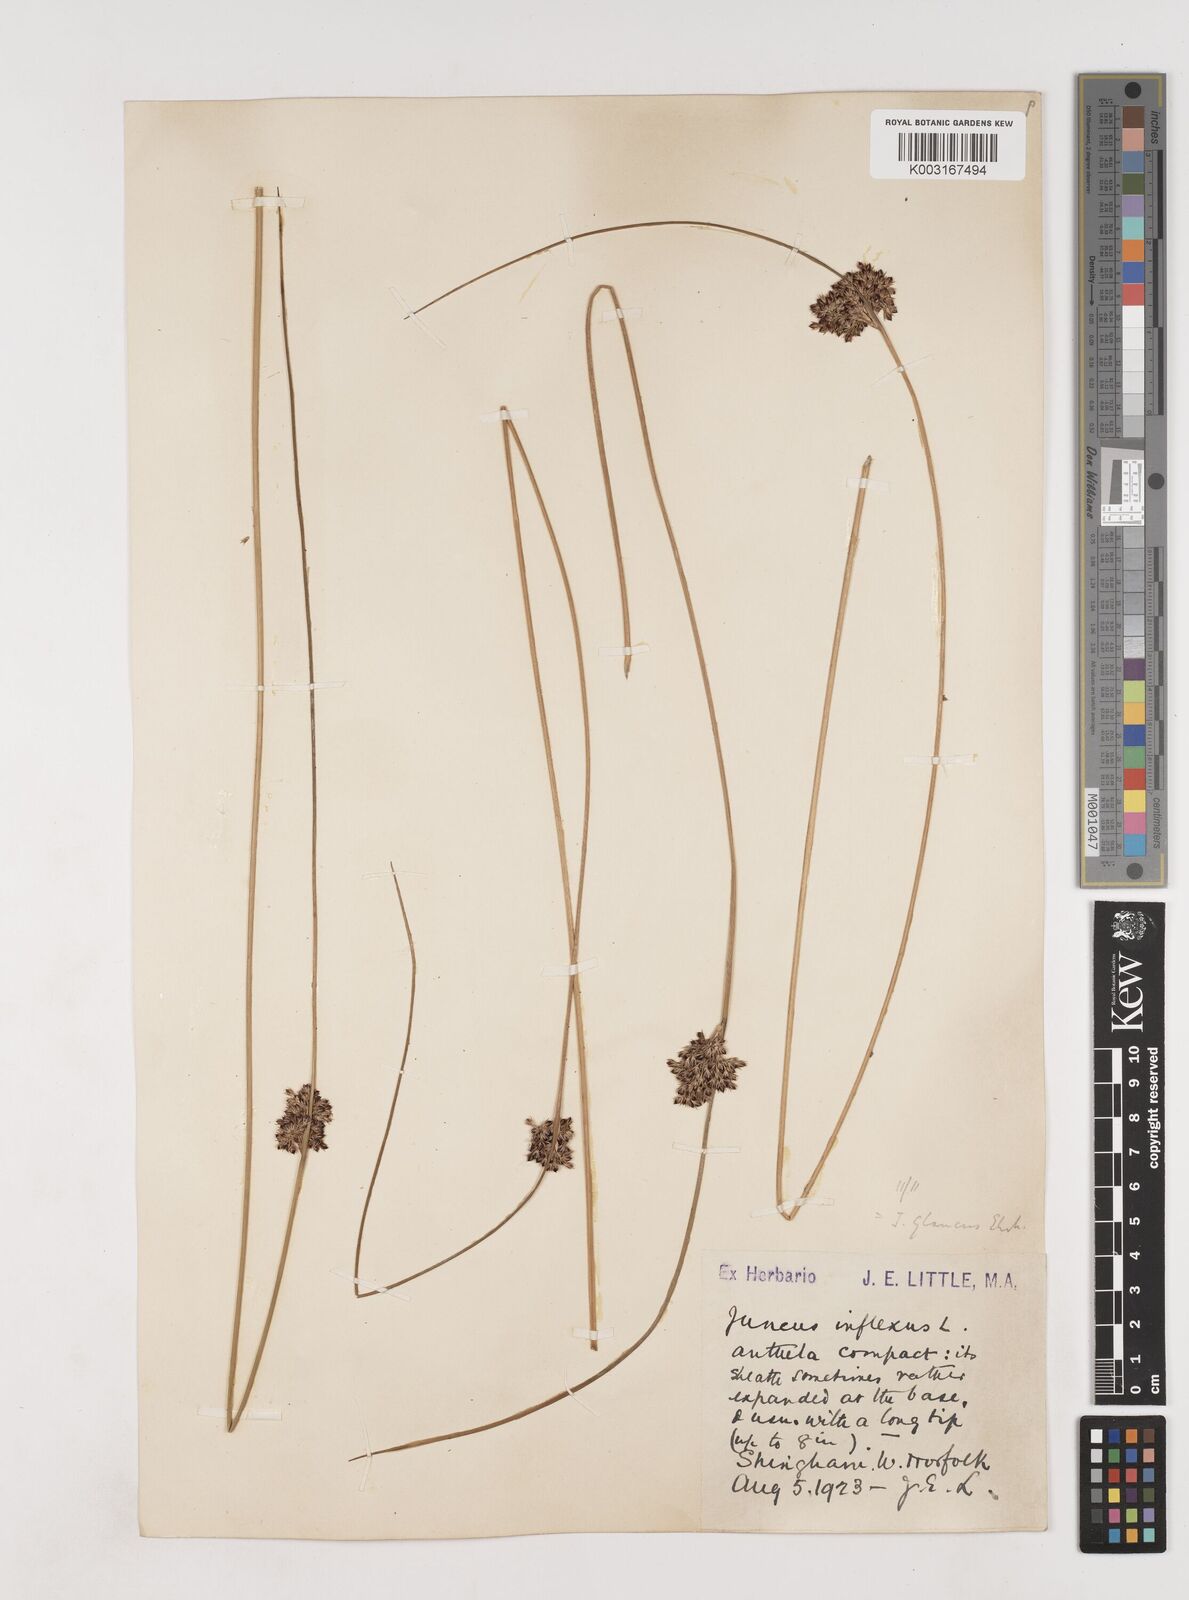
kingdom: Plantae
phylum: Tracheophyta
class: Liliopsida
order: Poales
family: Juncaceae
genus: Juncus
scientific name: Juncus inflexus
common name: Hard rush
